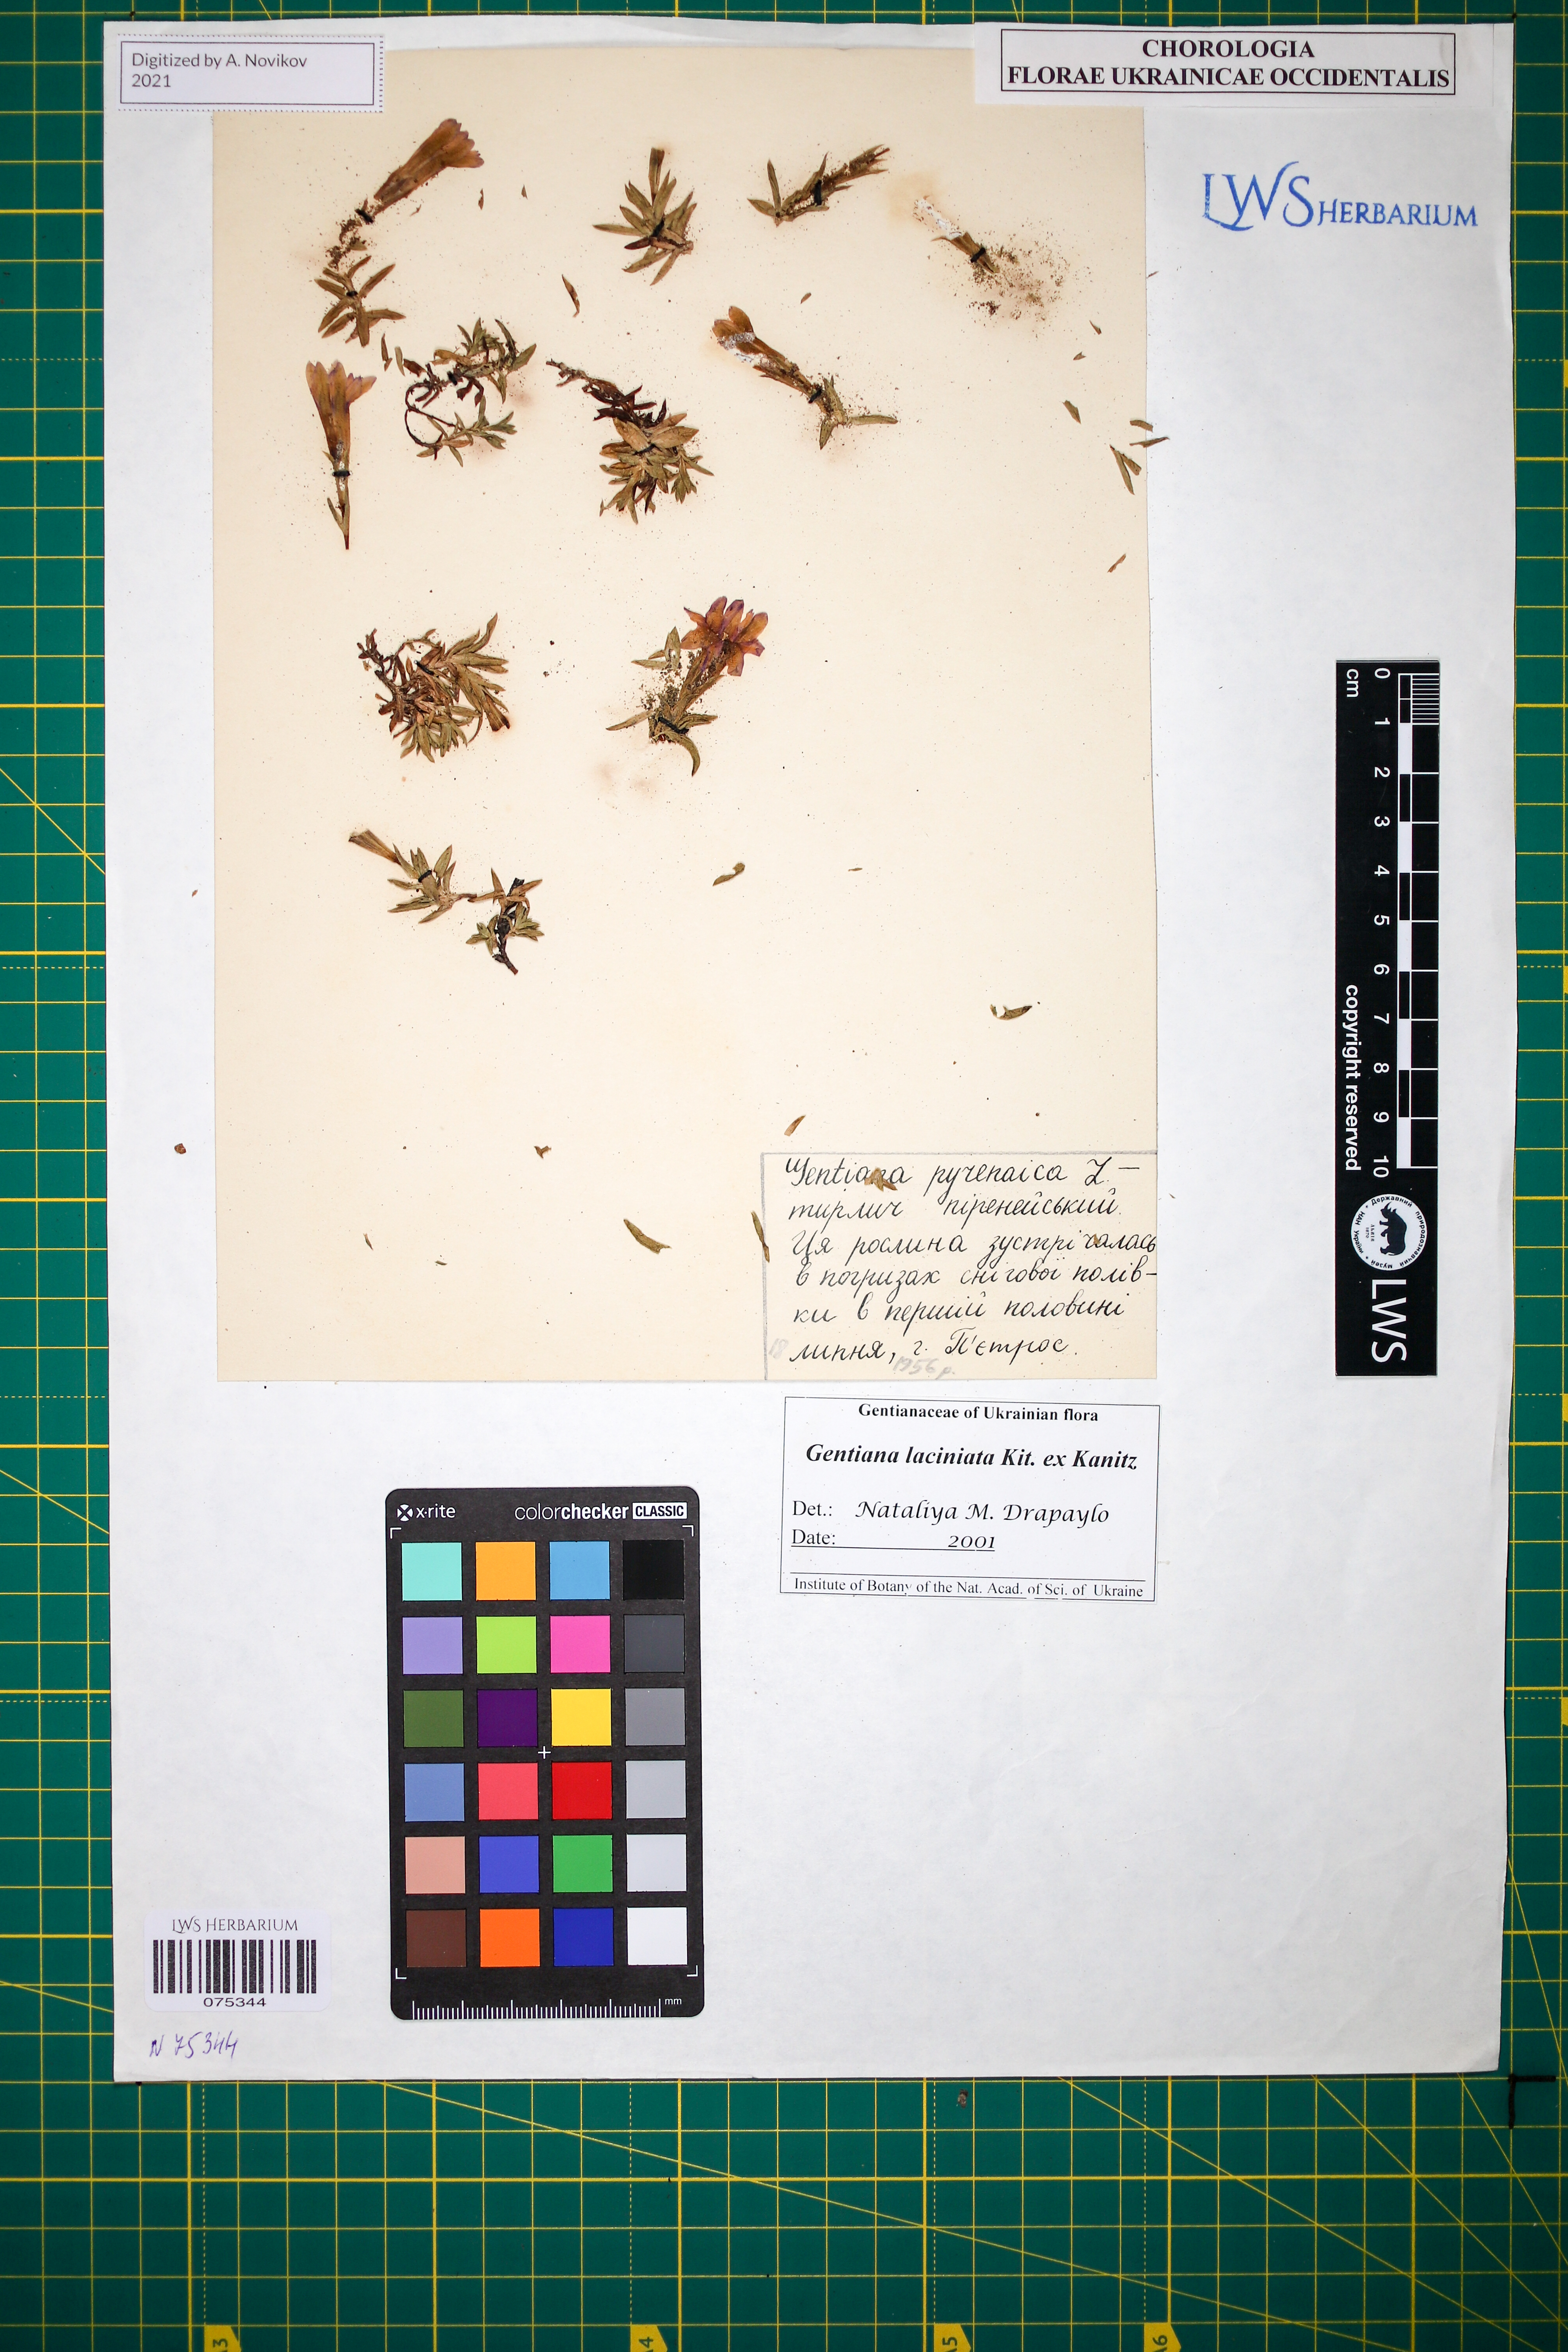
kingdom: Plantae
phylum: Tracheophyta
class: Magnoliopsida
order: Gentianales
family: Gentianaceae
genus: Gentiana
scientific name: Gentiana laciniata
